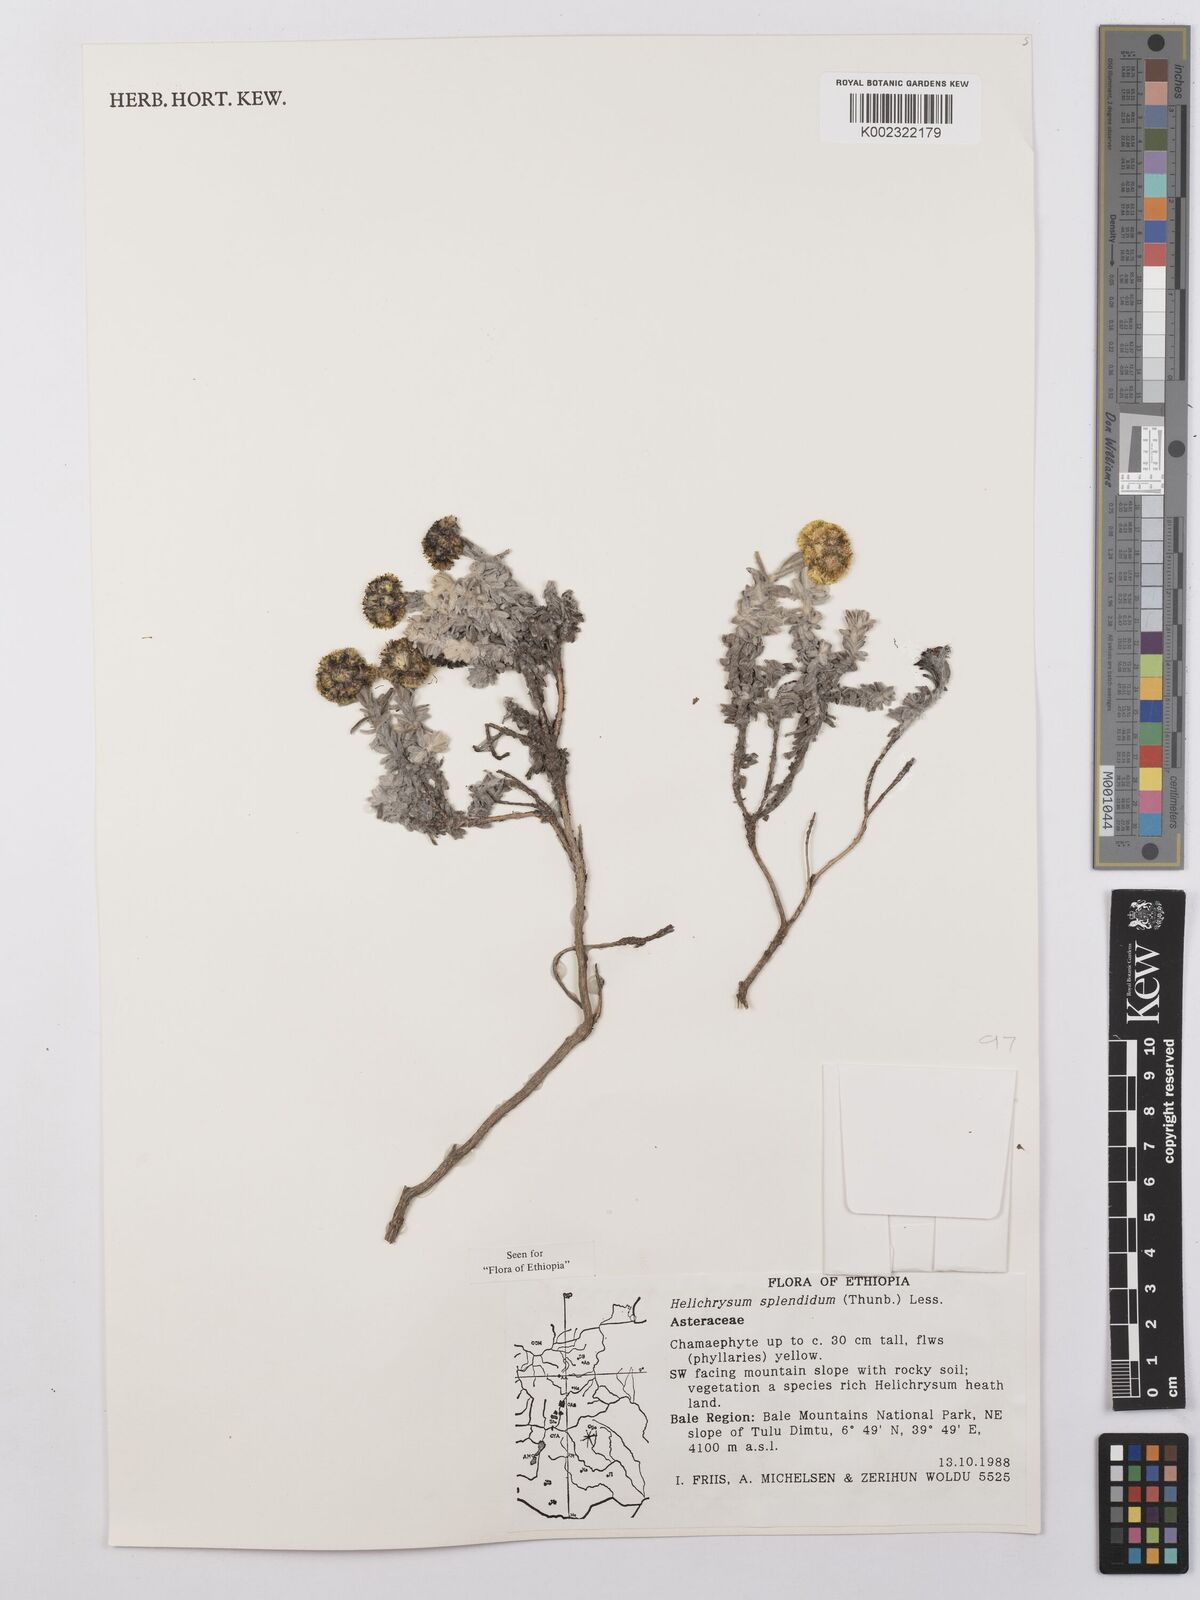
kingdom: Plantae
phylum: Tracheophyta
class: Magnoliopsida
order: Asterales
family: Asteraceae
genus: Helichrysum
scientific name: Helichrysum splendidum
